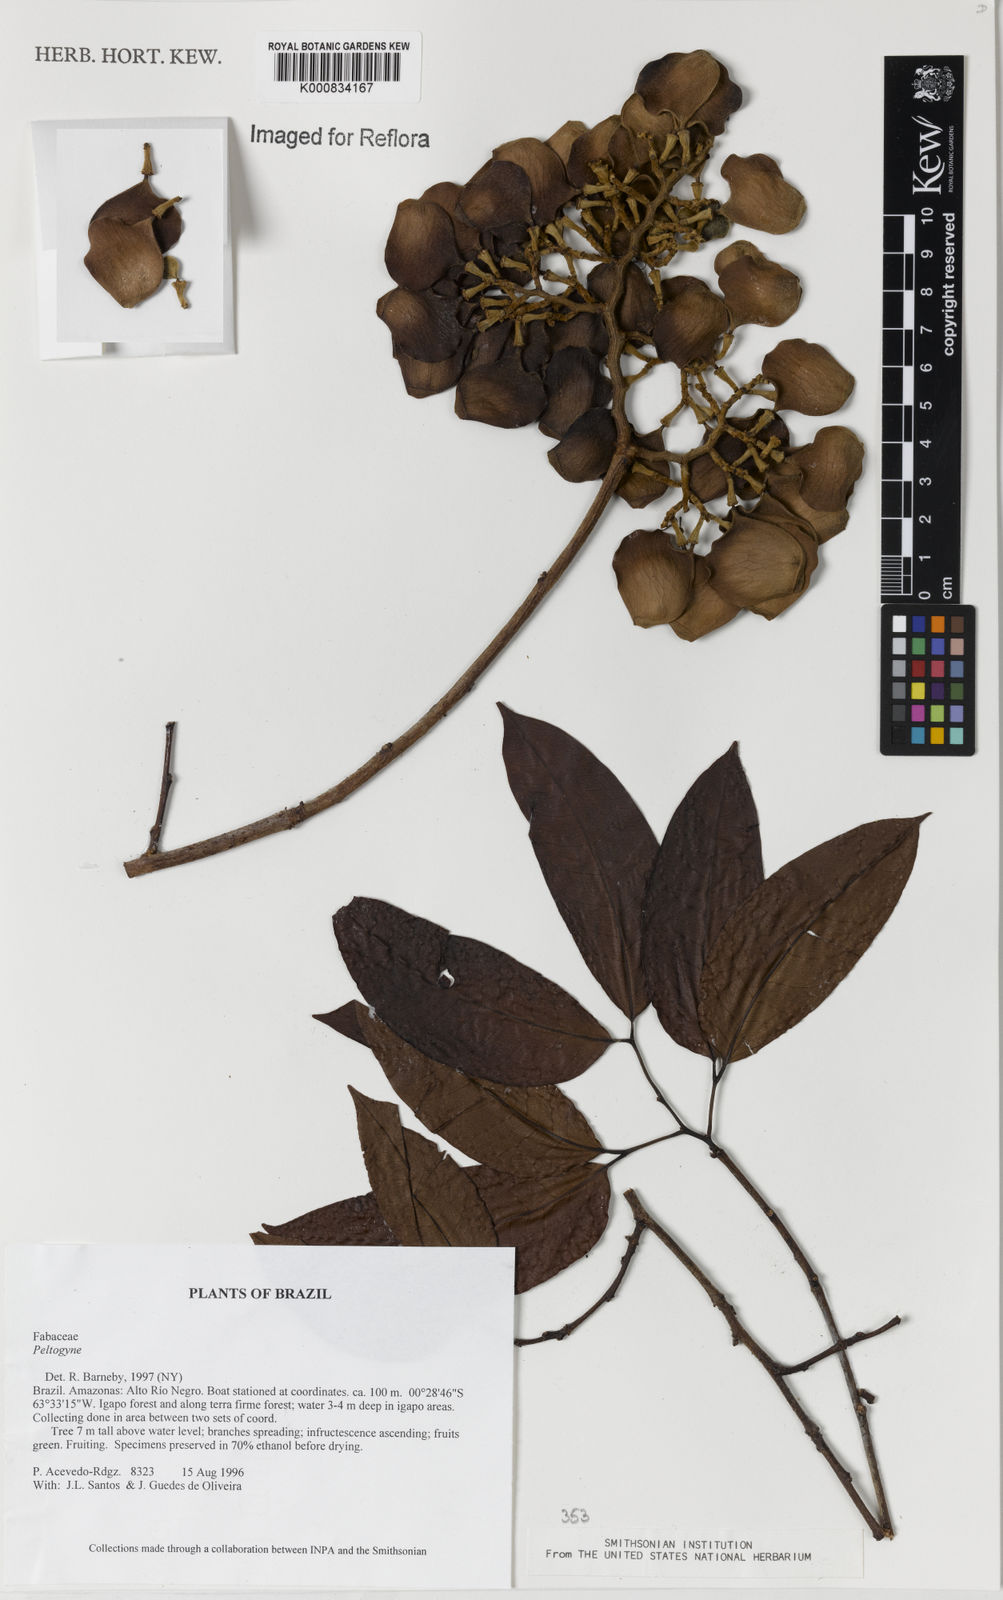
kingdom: Plantae
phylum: Tracheophyta
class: Magnoliopsida
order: Fabales
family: Fabaceae
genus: Peltogyne
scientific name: Peltogyne
